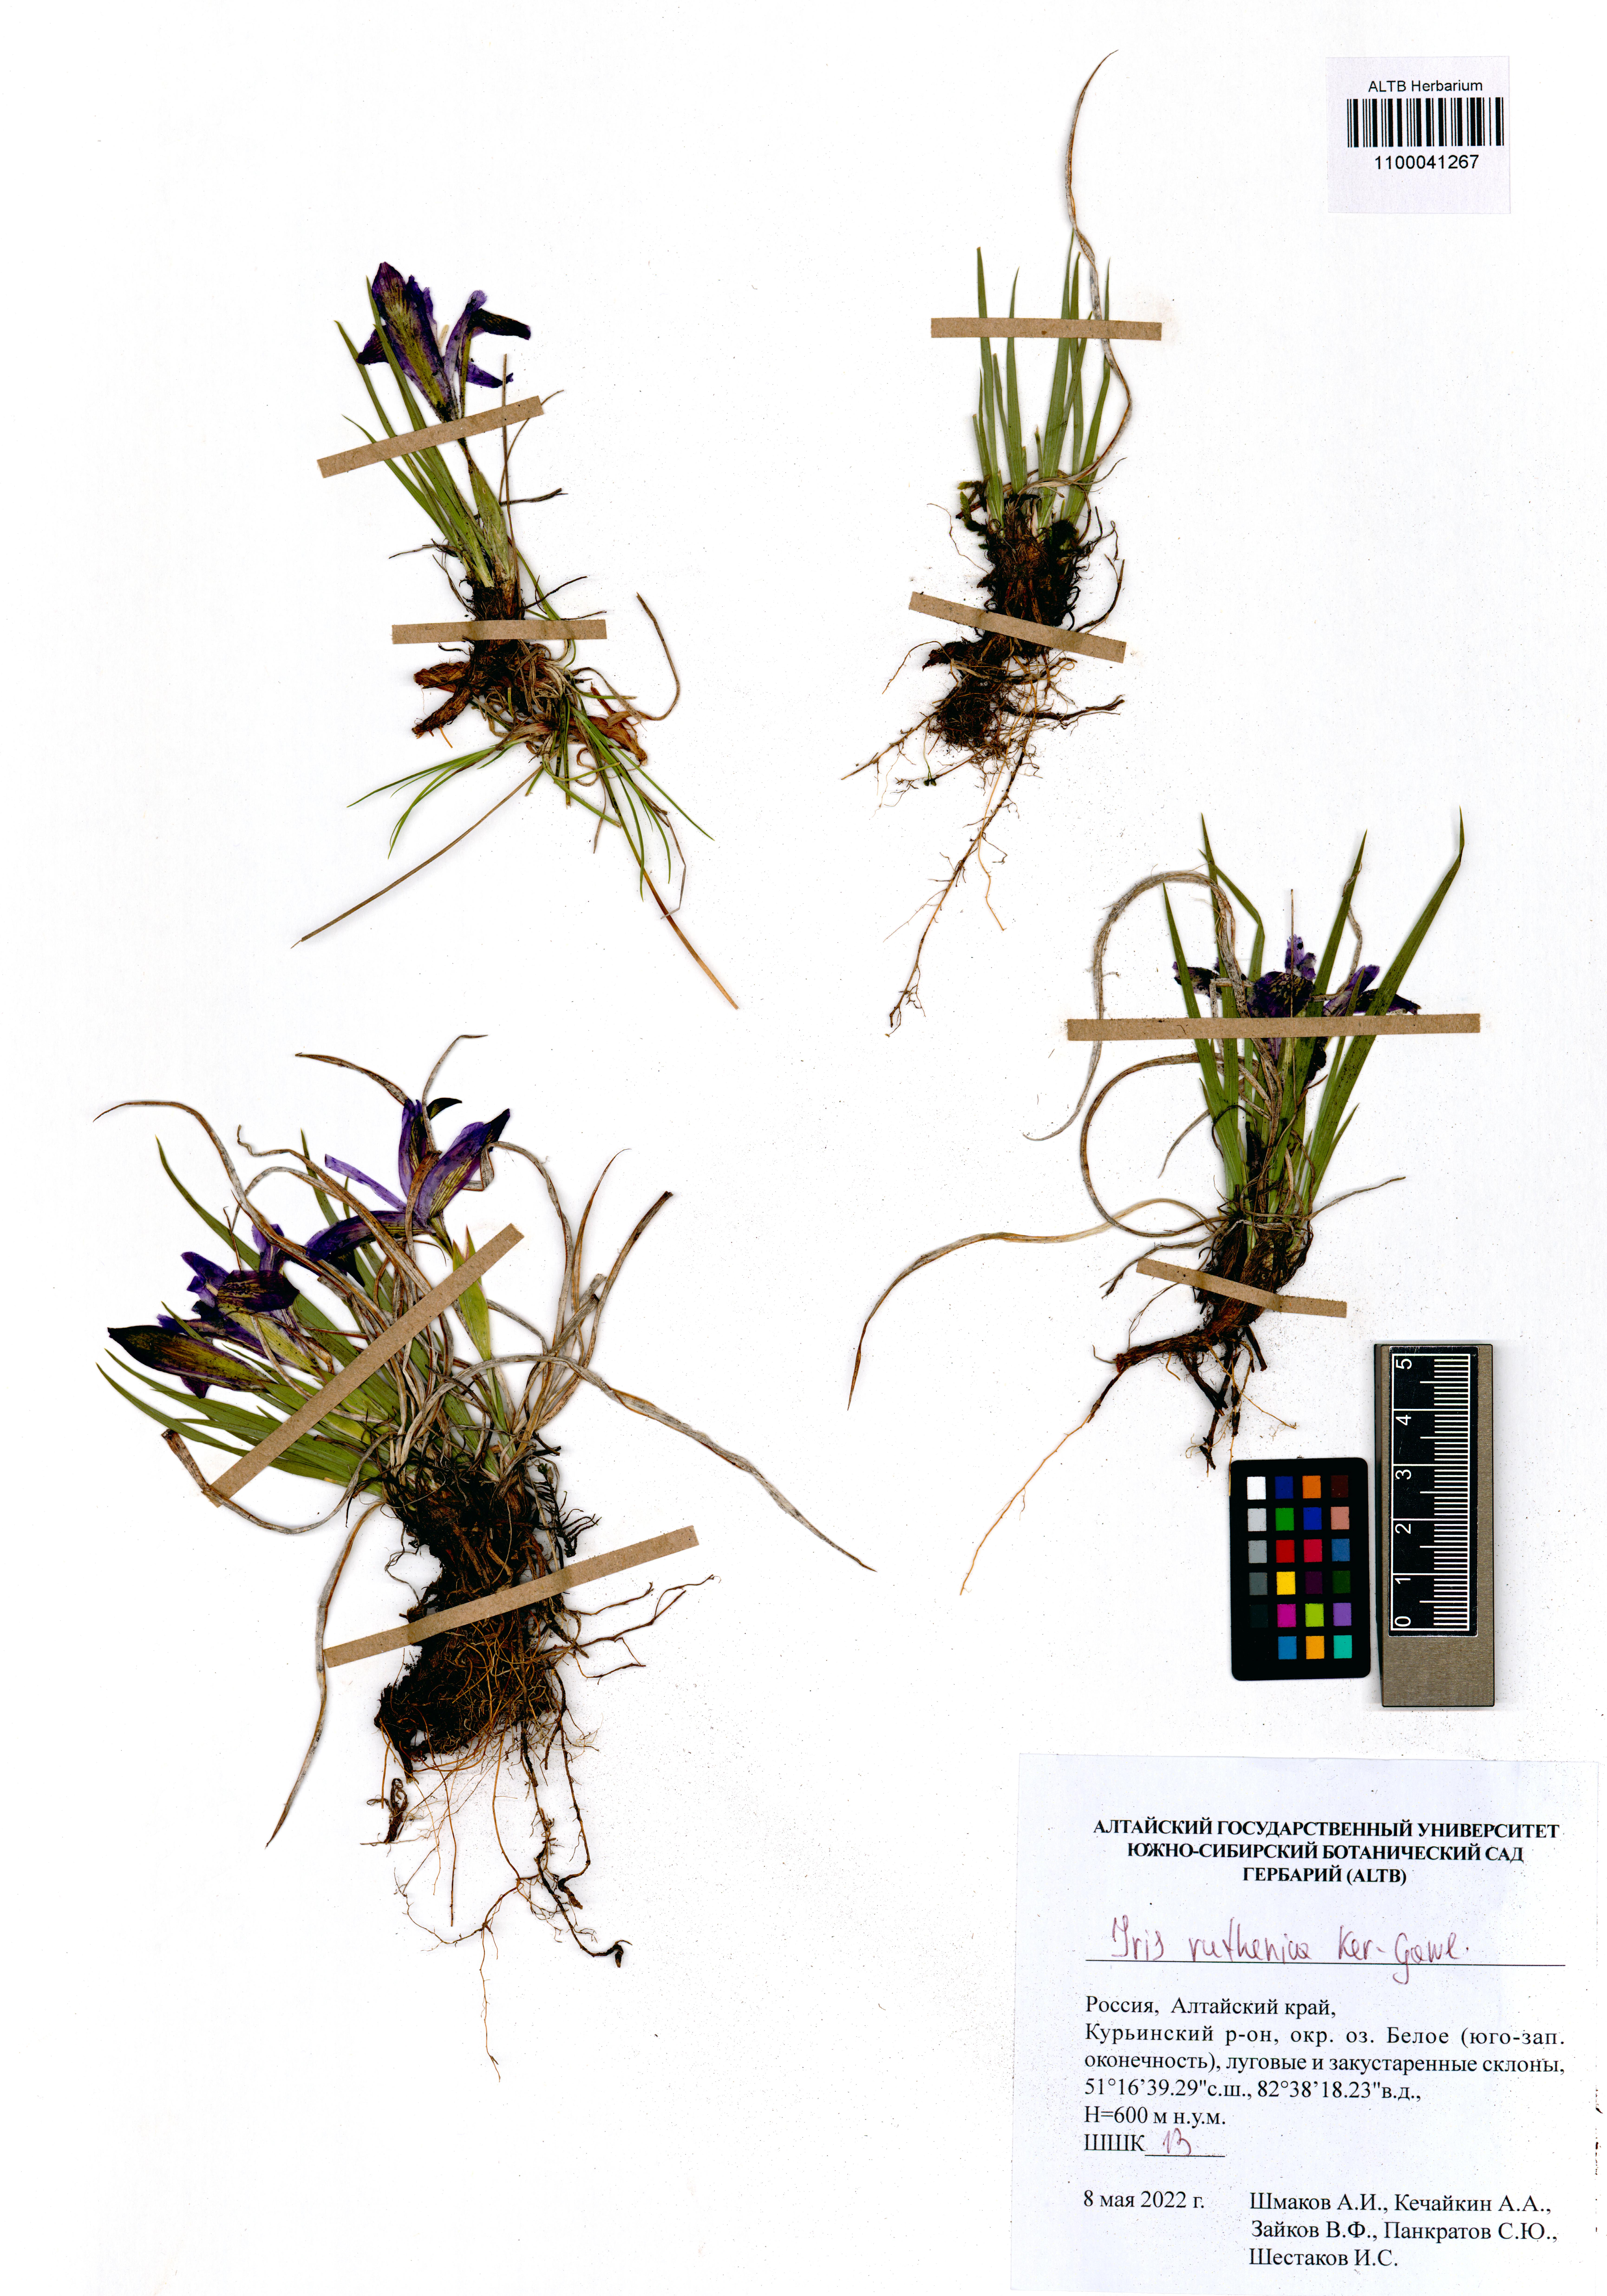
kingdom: Plantae
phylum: Tracheophyta
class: Liliopsida
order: Asparagales
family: Iridaceae
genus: Iris
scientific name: Iris ruthenica
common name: Purple-bract iris
